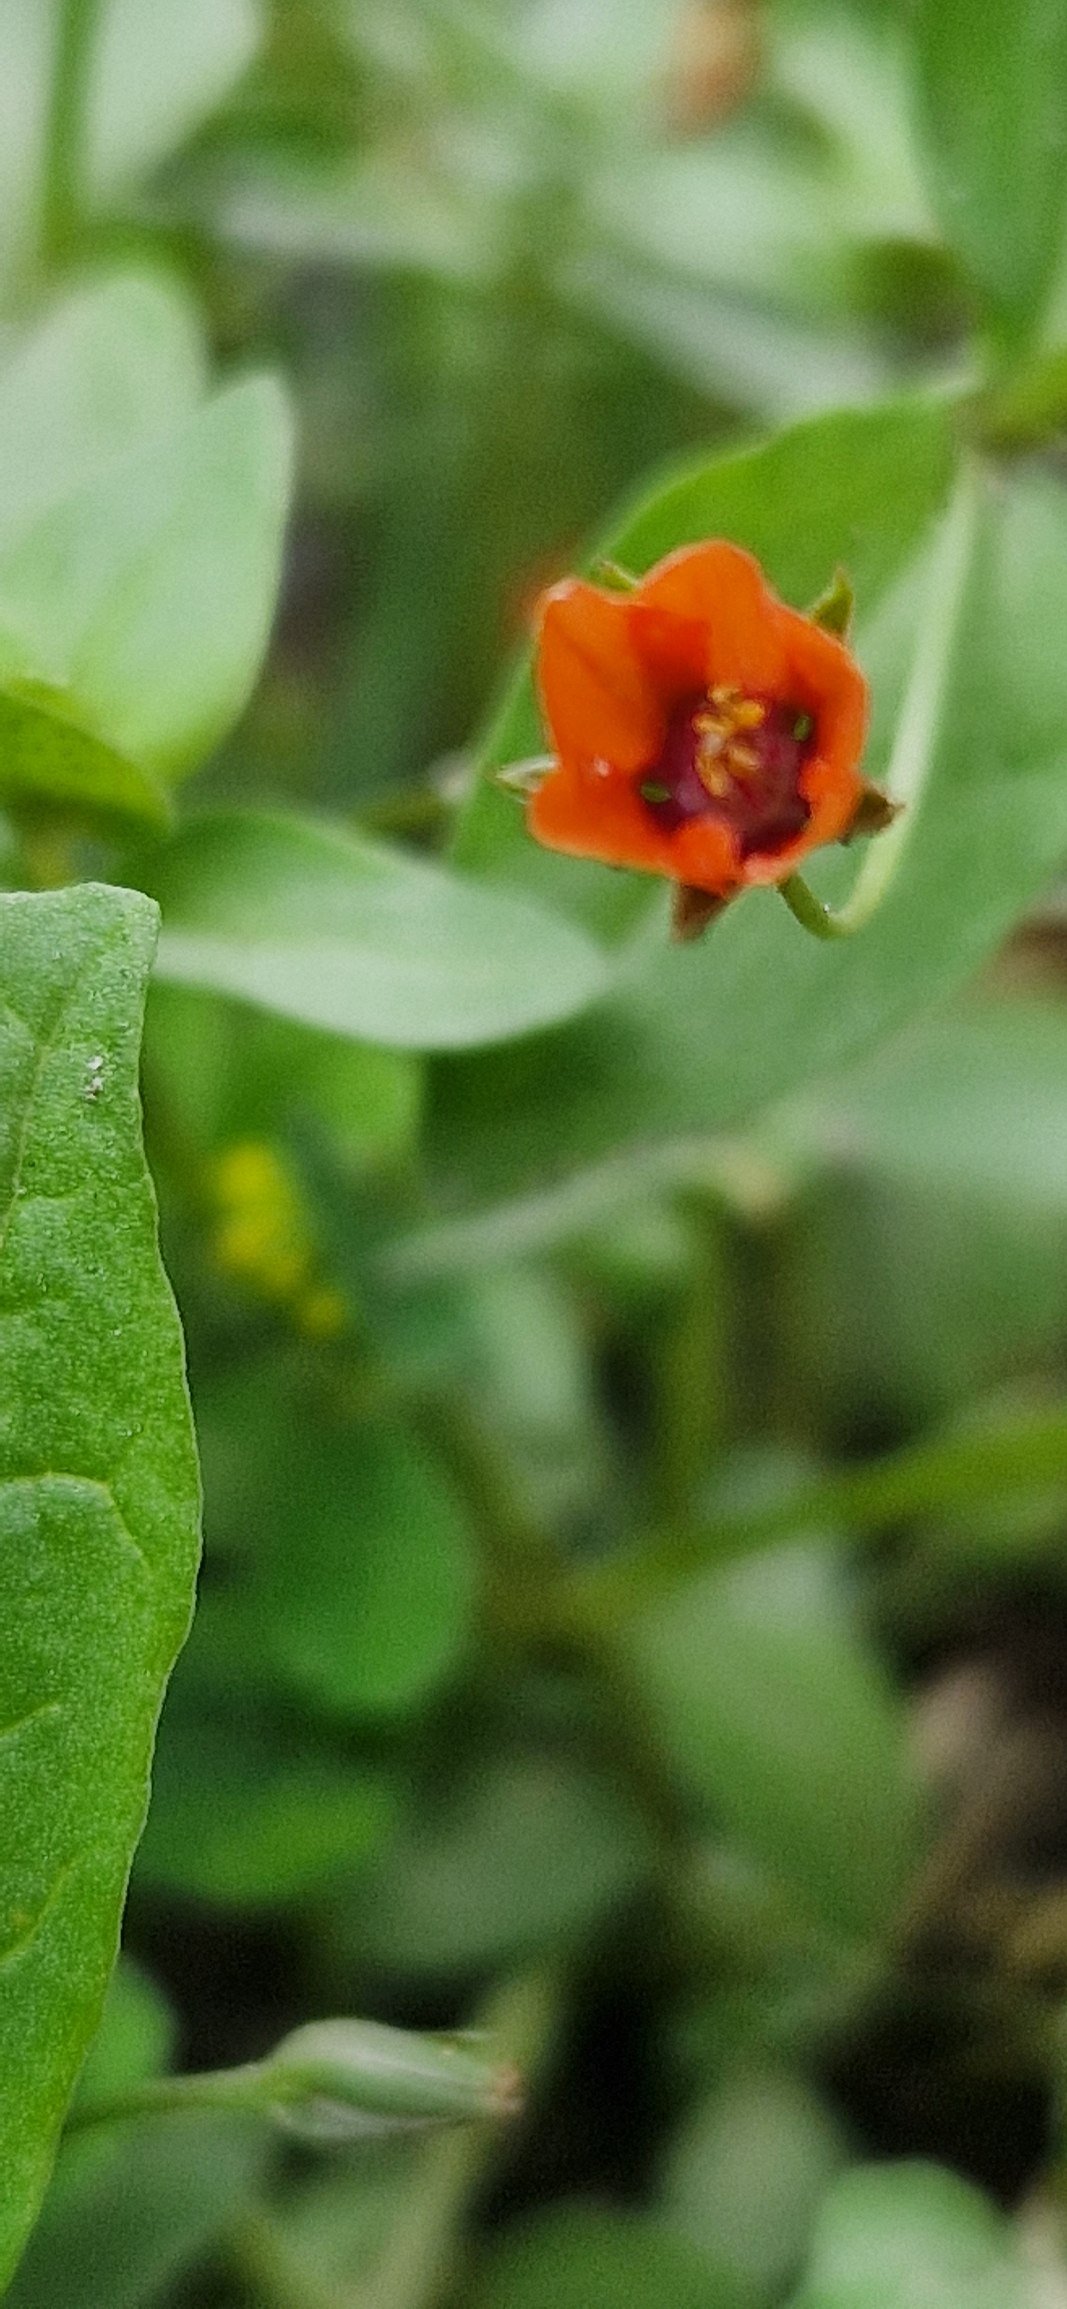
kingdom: Plantae
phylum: Tracheophyta
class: Magnoliopsida
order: Ericales
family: Primulaceae
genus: Lysimachia
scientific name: Lysimachia arvensis
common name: Rød arve
